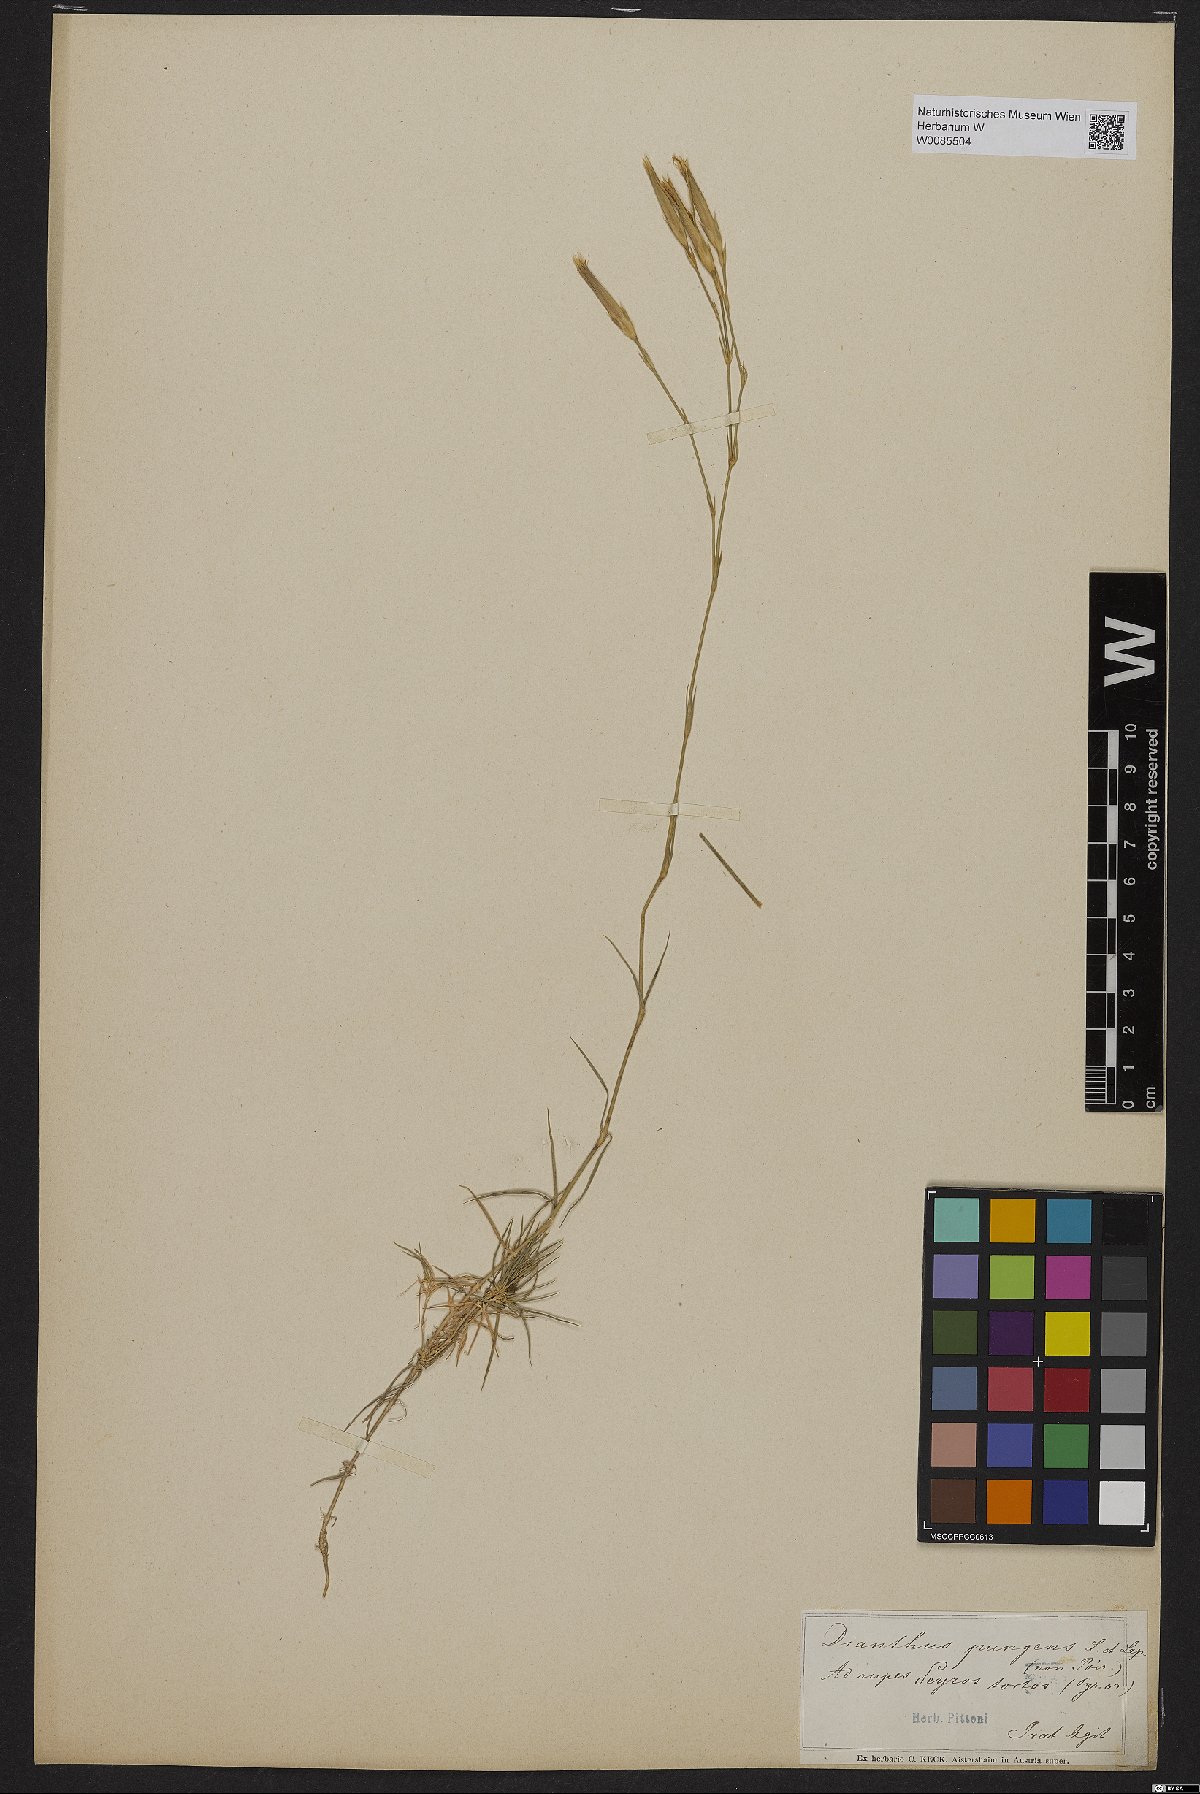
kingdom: Plantae
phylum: Tracheophyta
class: Magnoliopsida
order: Caryophyllales
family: Caryophyllaceae
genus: Dianthus
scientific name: Dianthus pungens
